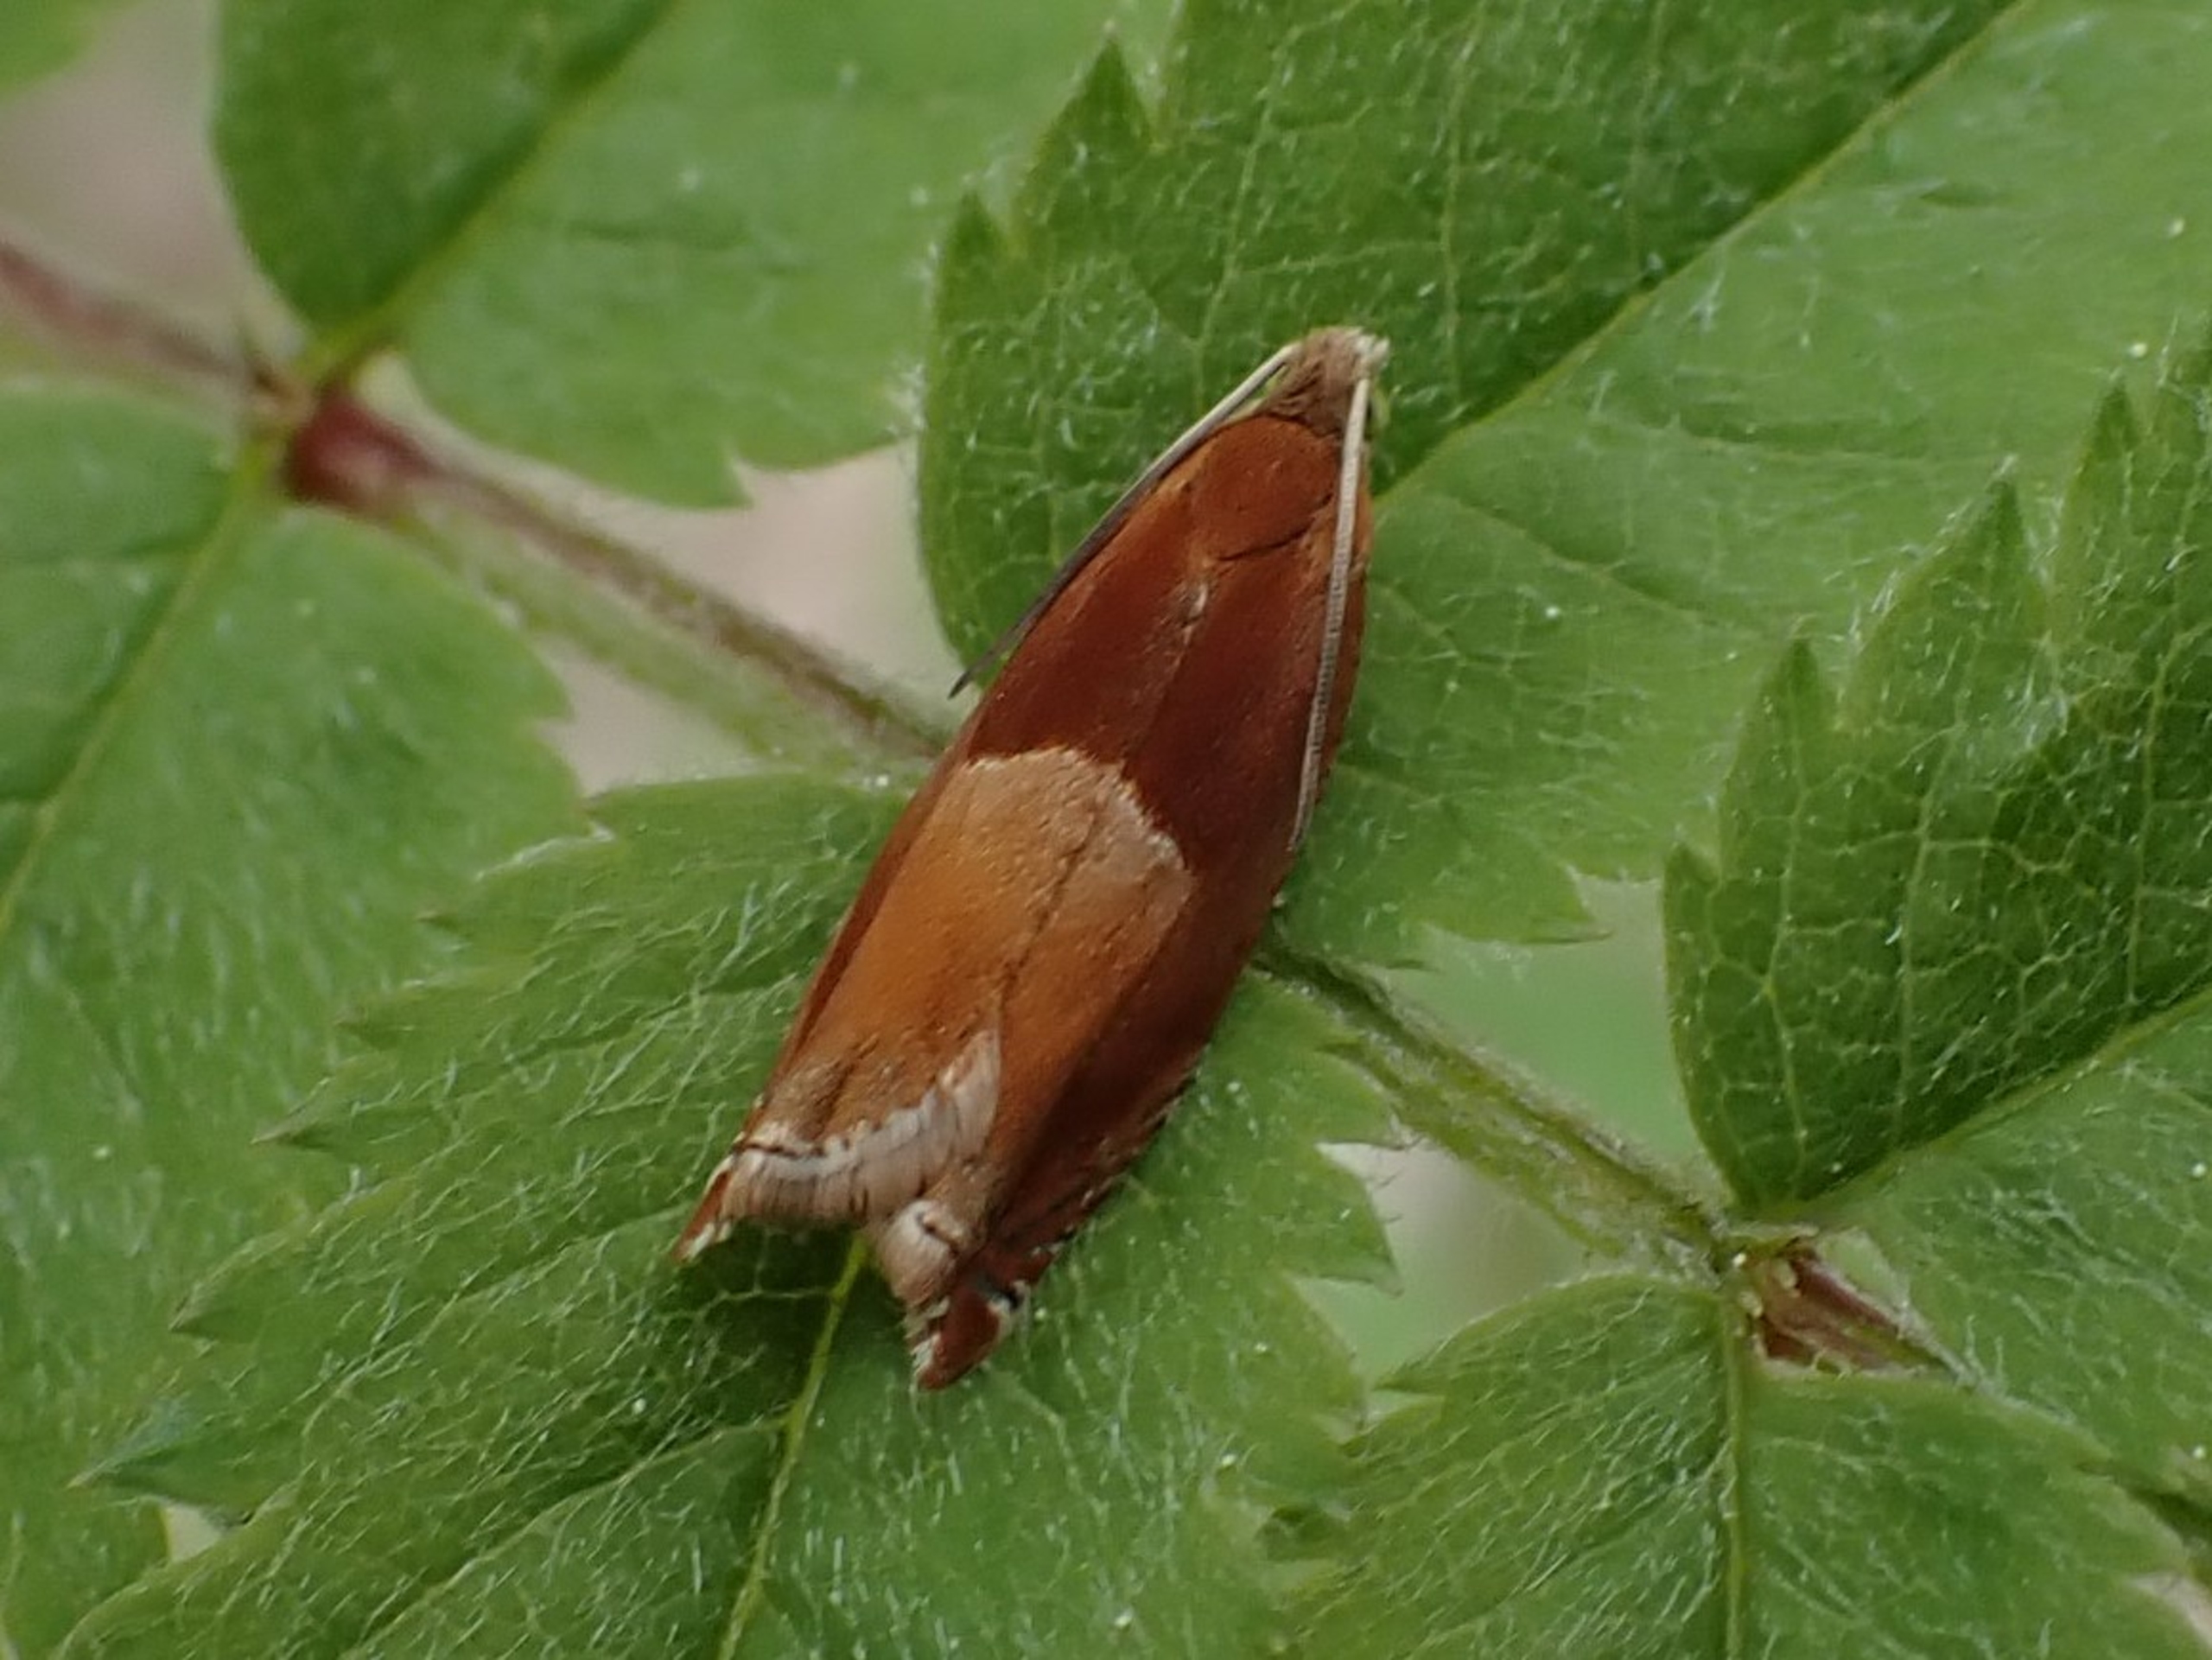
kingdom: Animalia
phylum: Arthropoda
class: Insecta
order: Lepidoptera
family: Tortricidae
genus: Ancylis
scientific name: Ancylis mitterbacheriana
